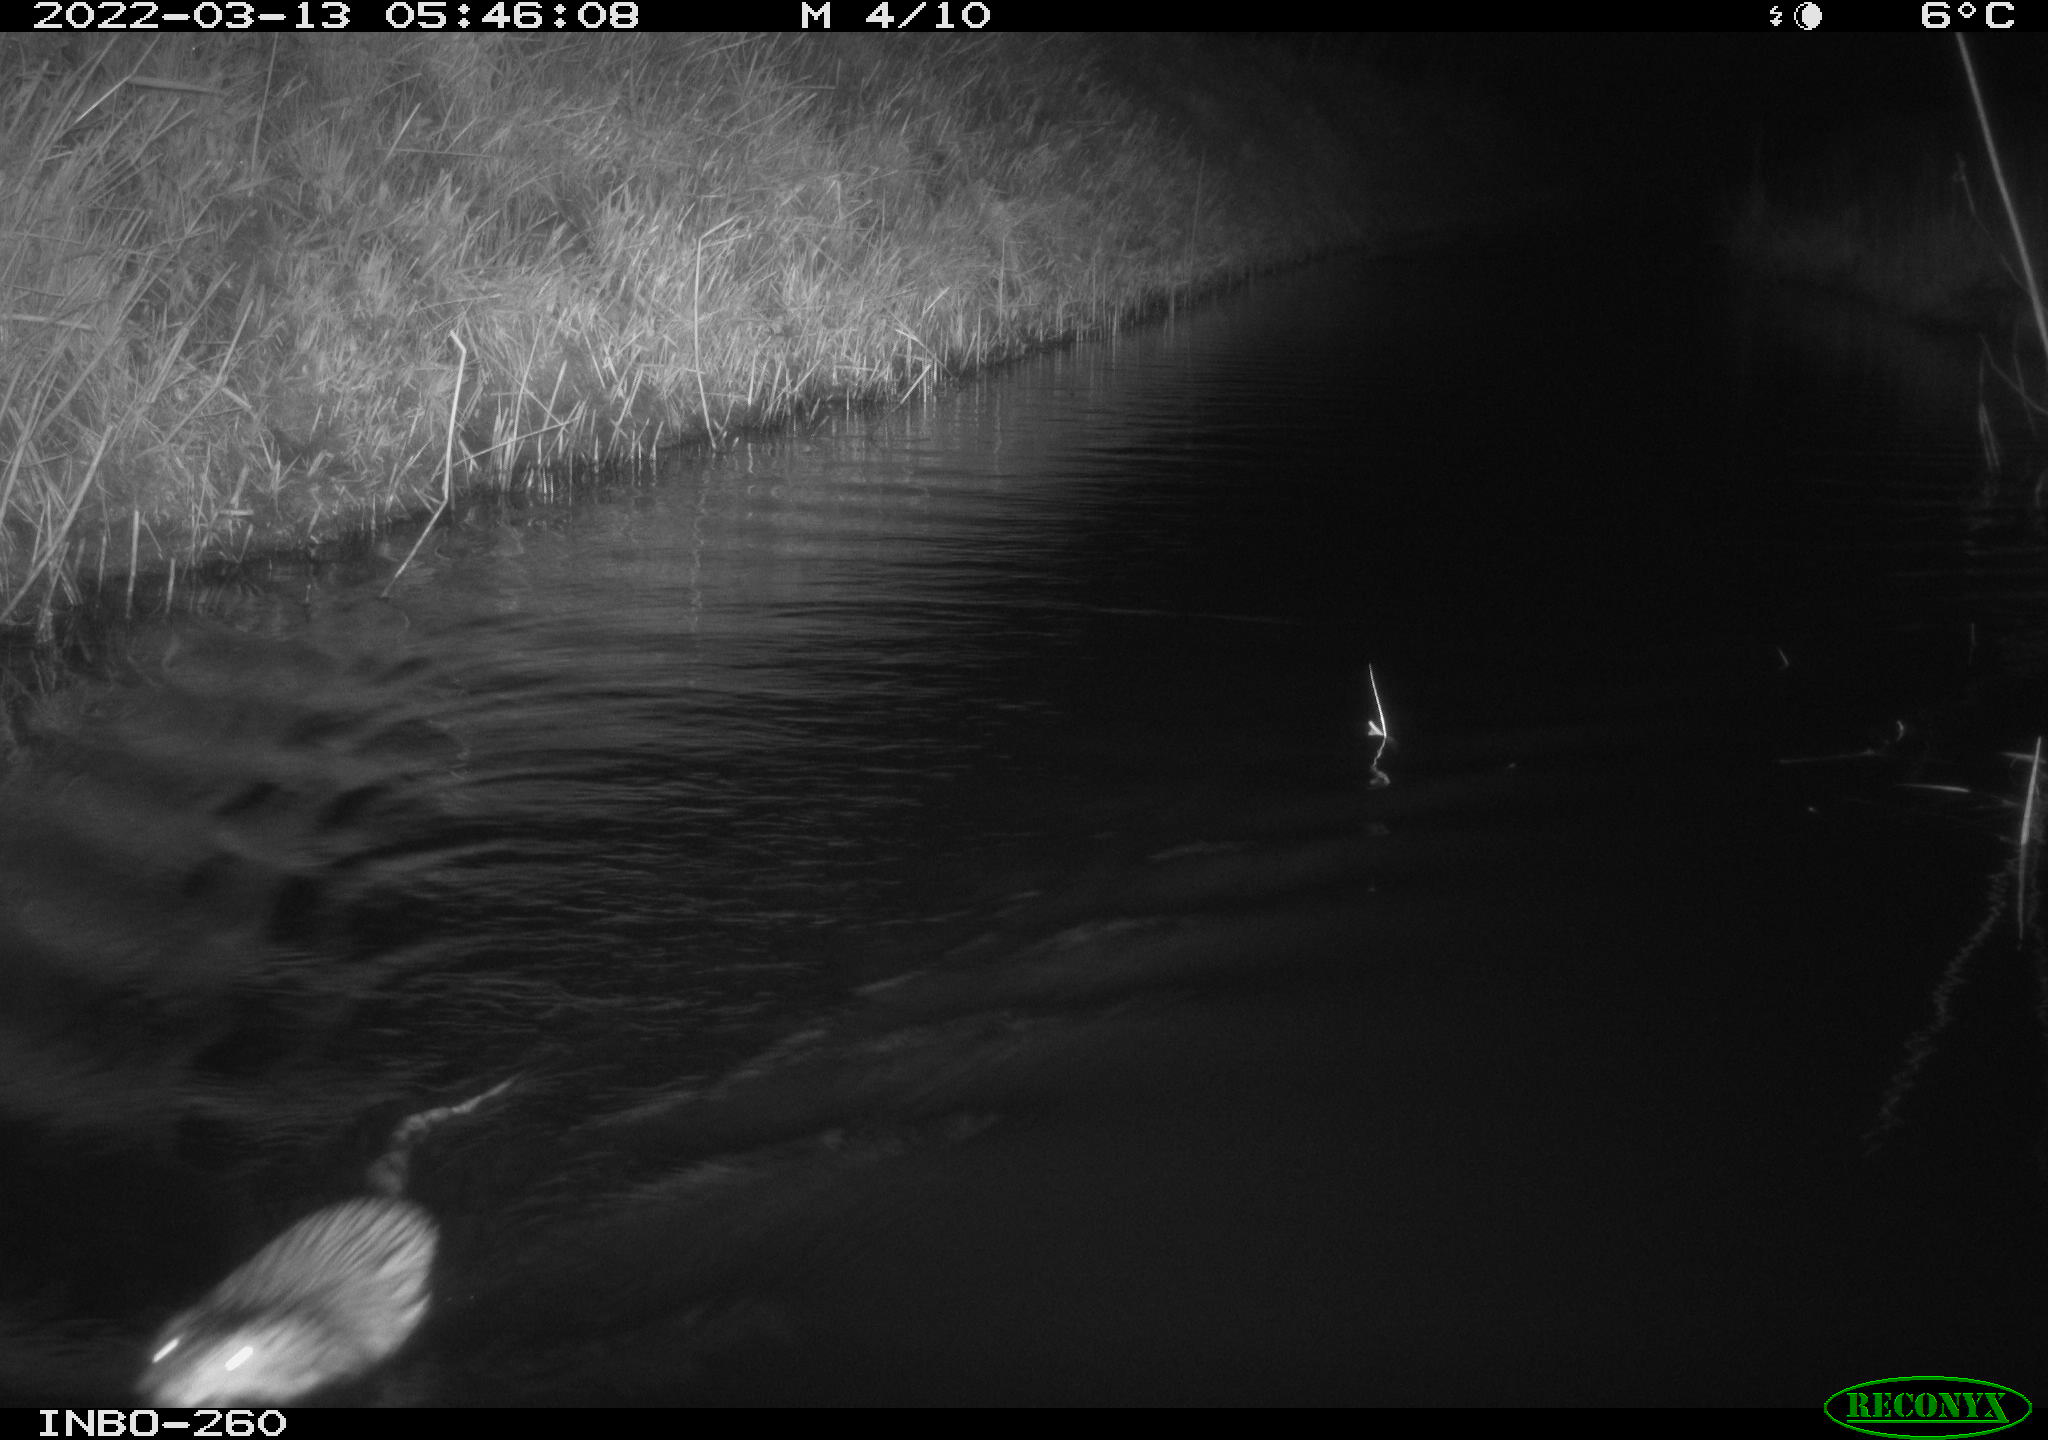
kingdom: Animalia
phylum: Chordata
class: Mammalia
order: Rodentia
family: Cricetidae
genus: Ondatra
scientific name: Ondatra zibethicus
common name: Muskrat
